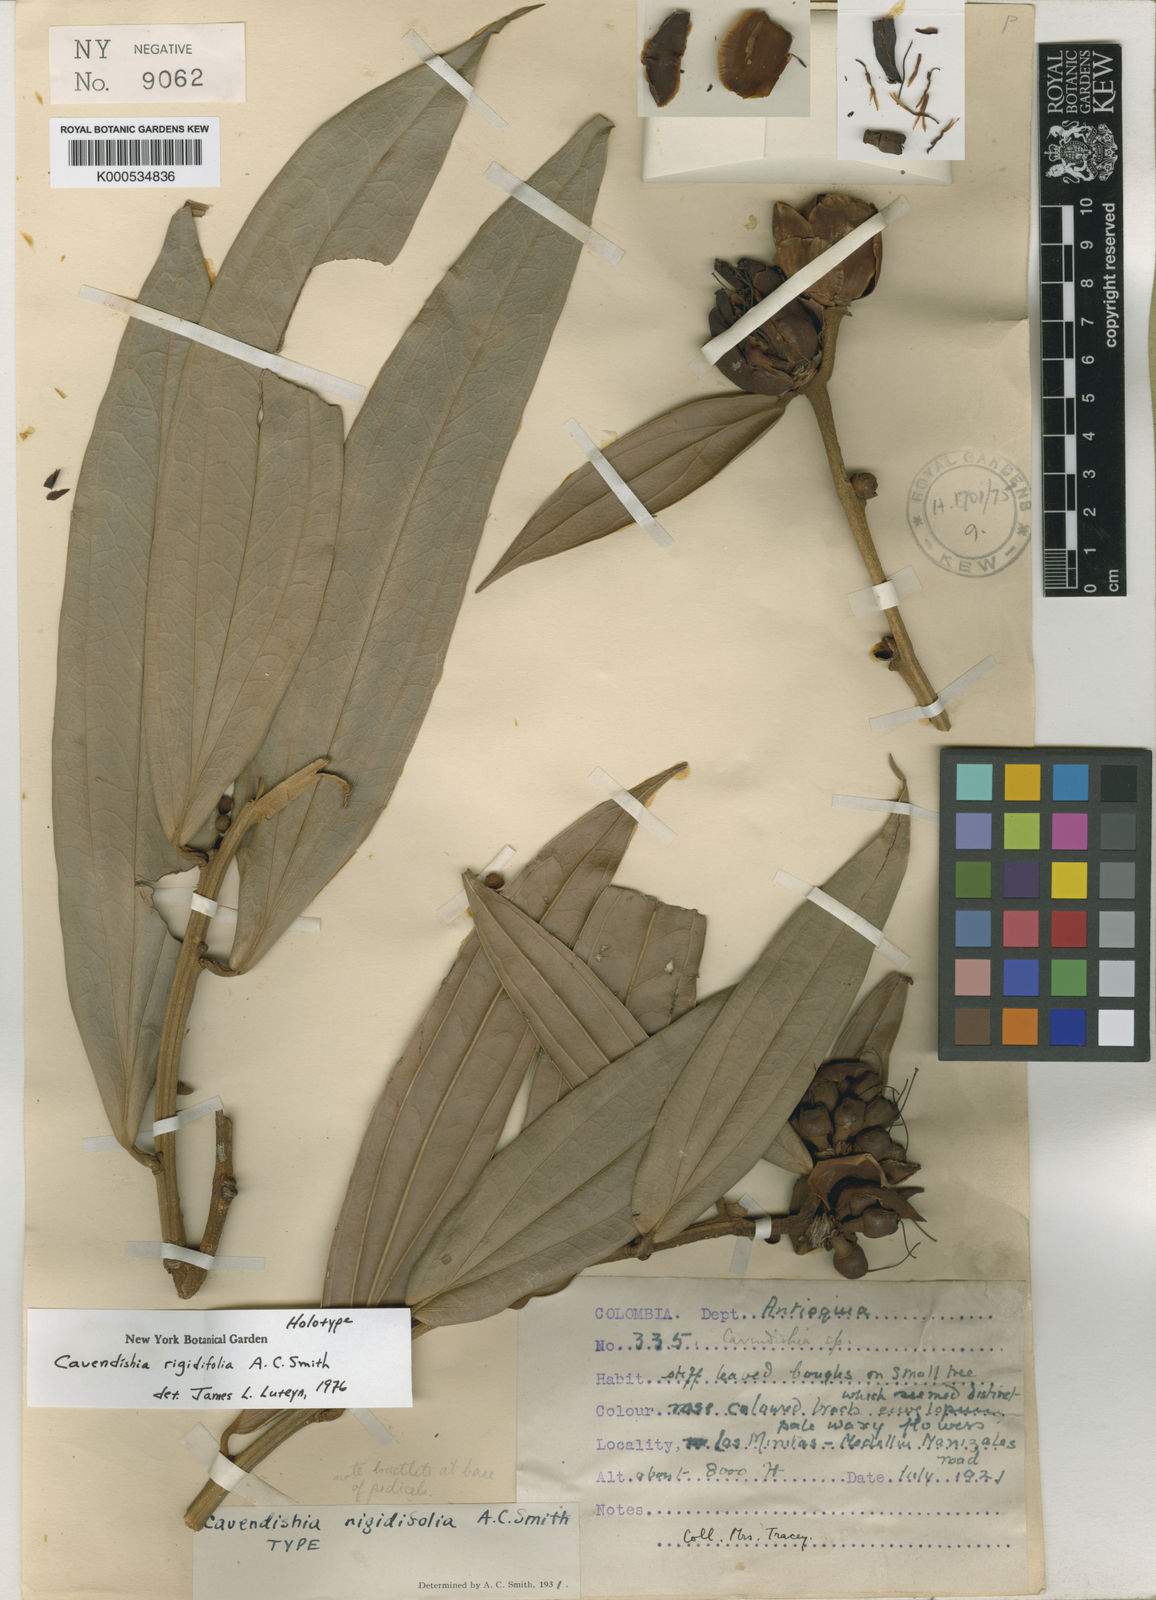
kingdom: Plantae
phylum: Tracheophyta
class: Magnoliopsida
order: Ericales
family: Ericaceae
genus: Cavendishia
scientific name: Cavendishia bracteata
